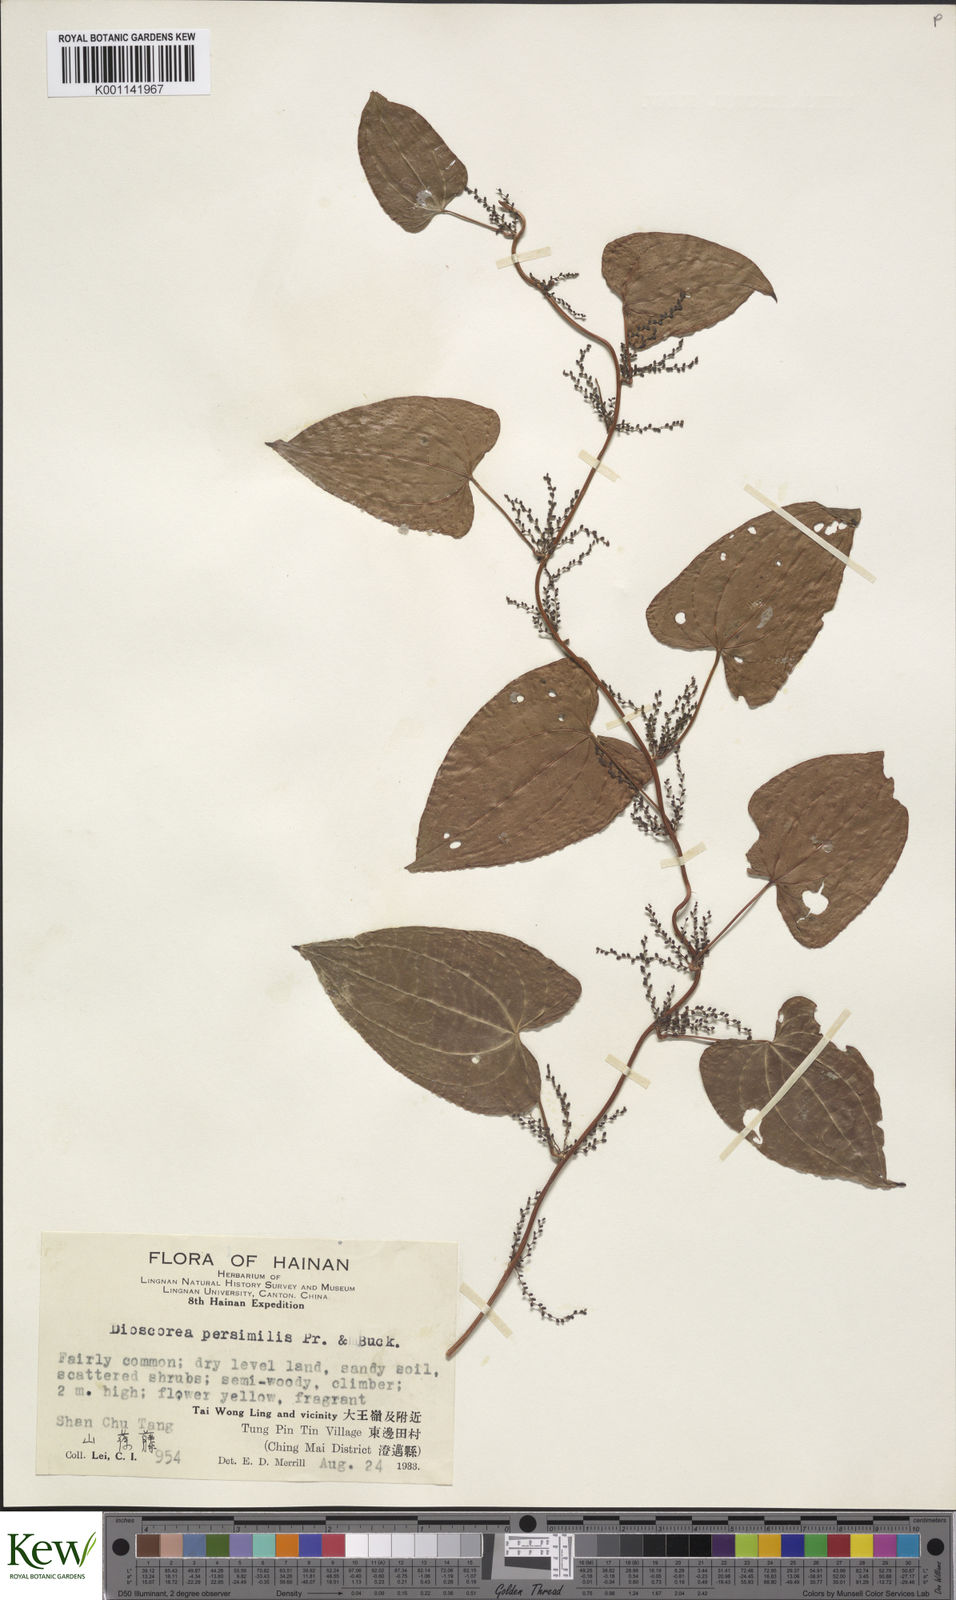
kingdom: Plantae
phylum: Tracheophyta
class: Liliopsida
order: Dioscoreales
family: Dioscoreaceae
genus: Dioscorea
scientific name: Dioscorea hamiltonii
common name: Mountain yam
